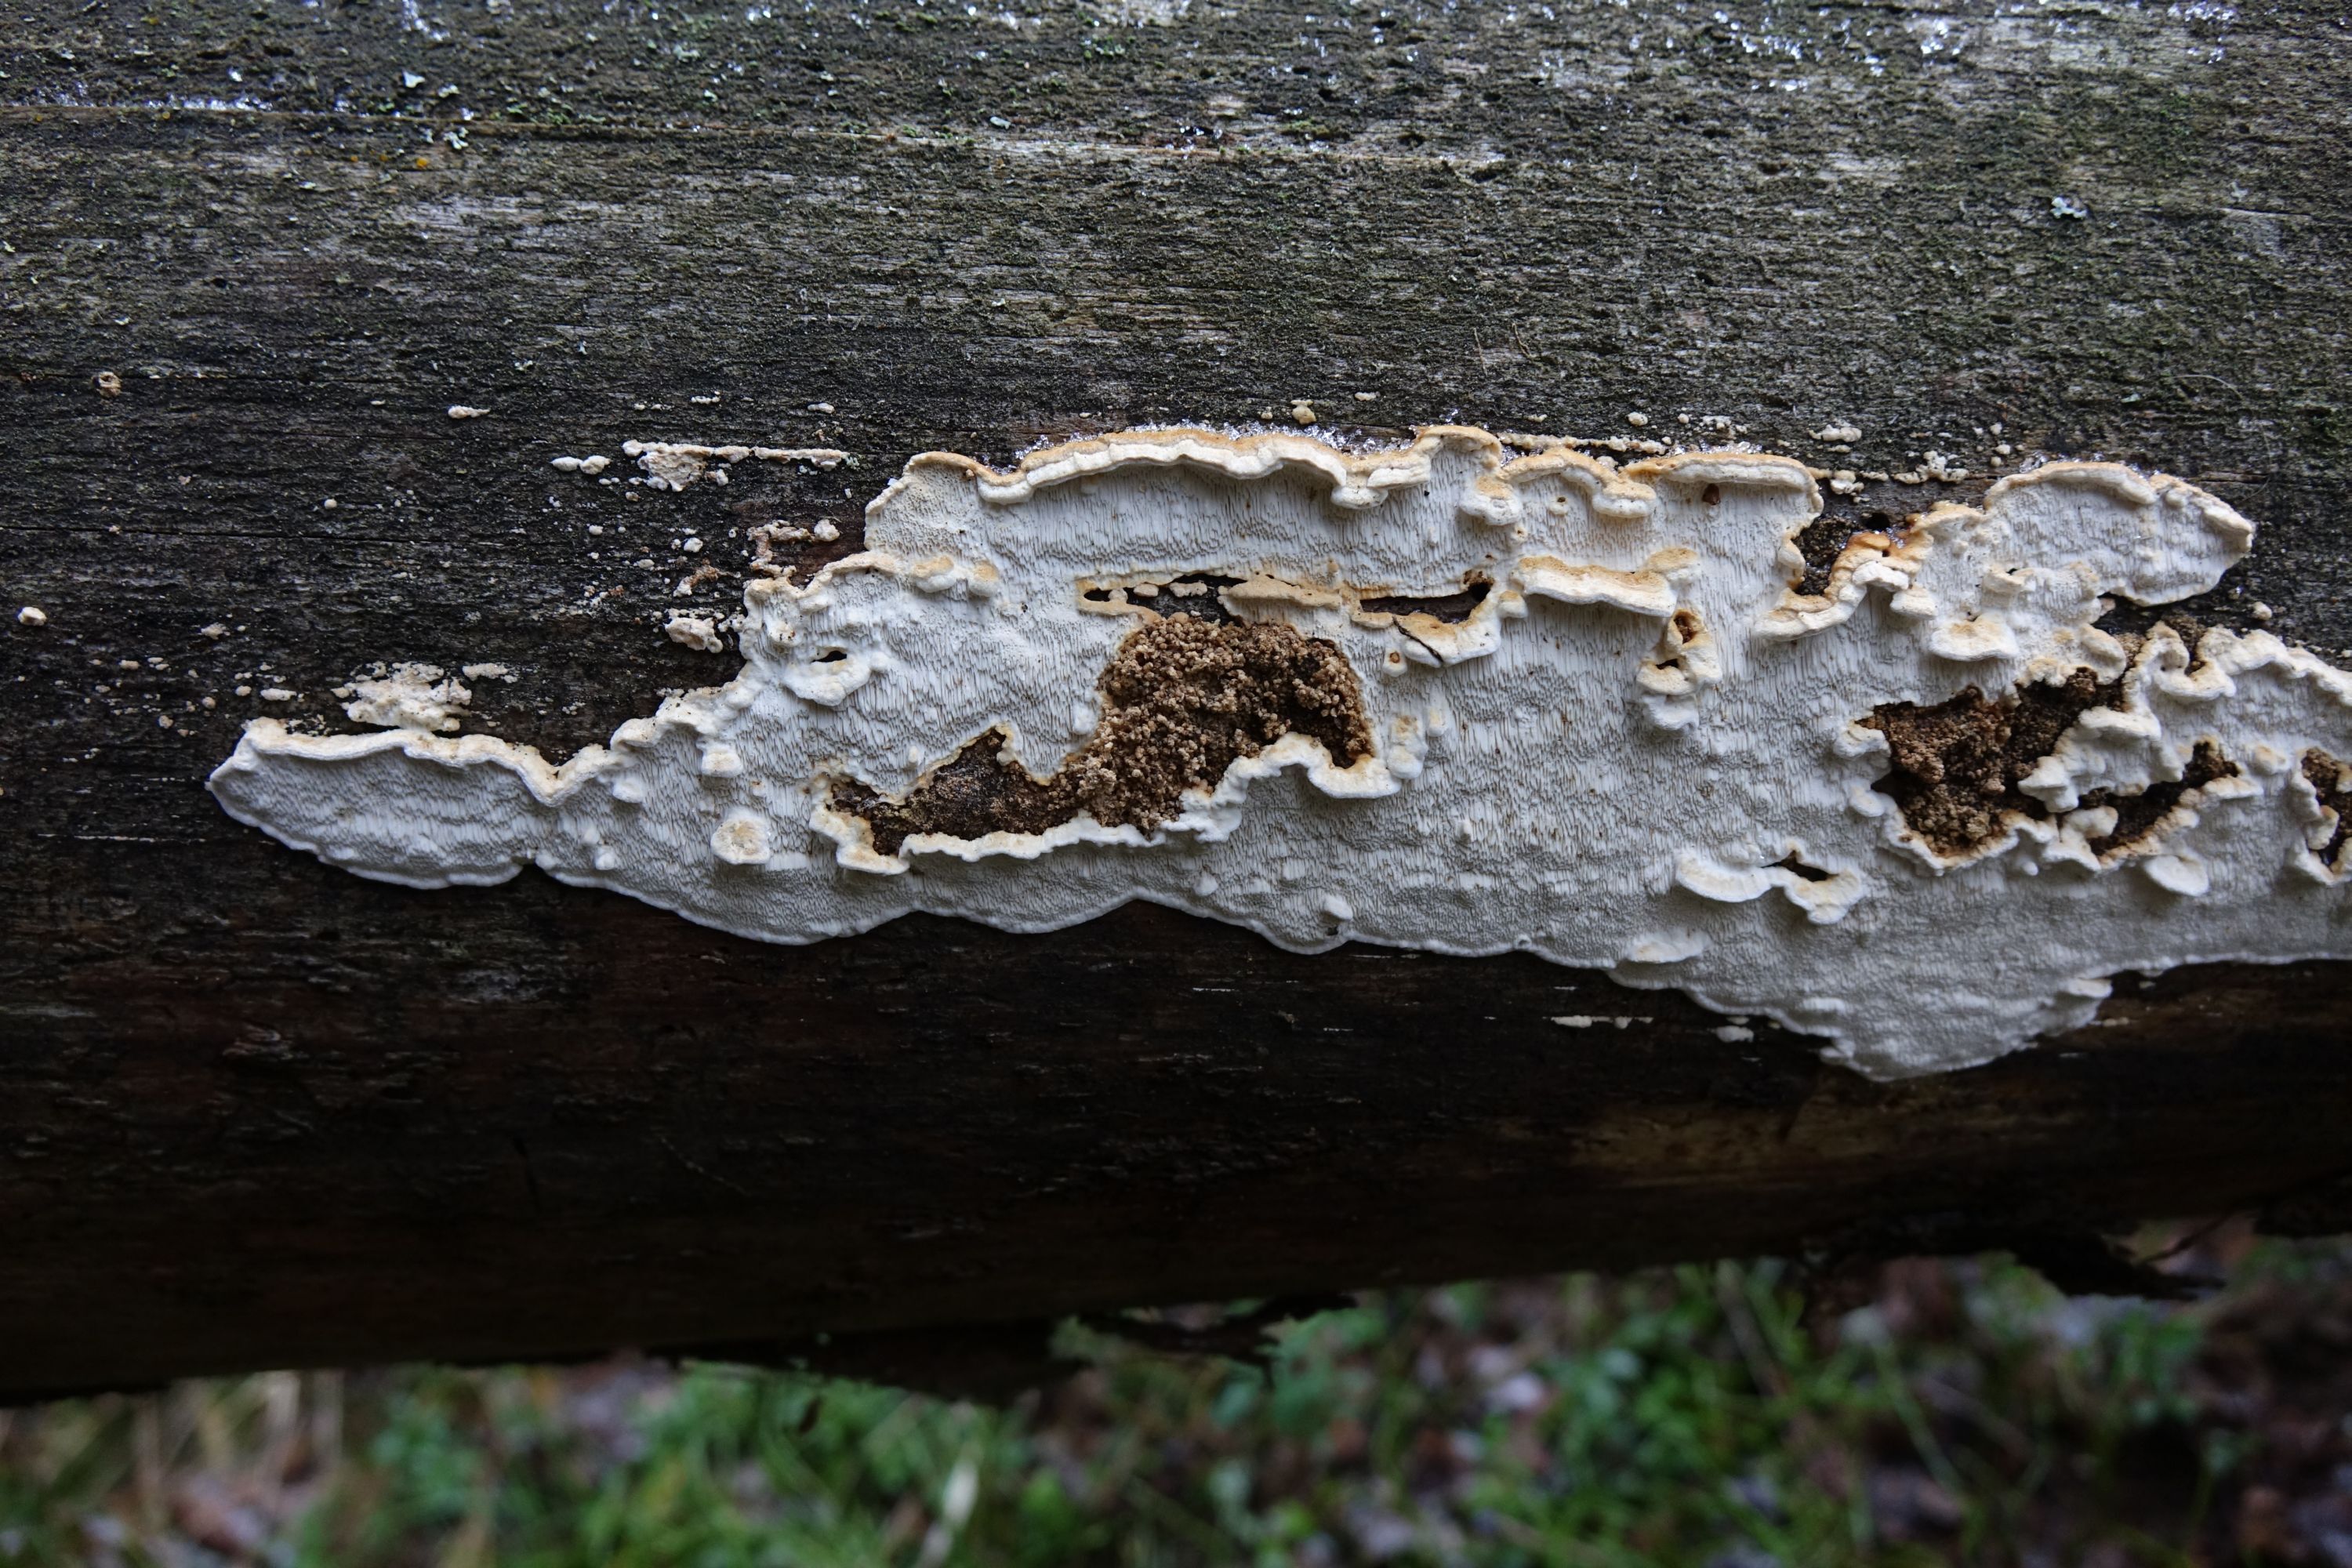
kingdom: Fungi
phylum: Basidiomycota
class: Agaricomycetes
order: Polyporales
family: Fomitopsidaceae
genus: Neoantrodia
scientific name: Neoantrodia serialis
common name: Serried porecrust
